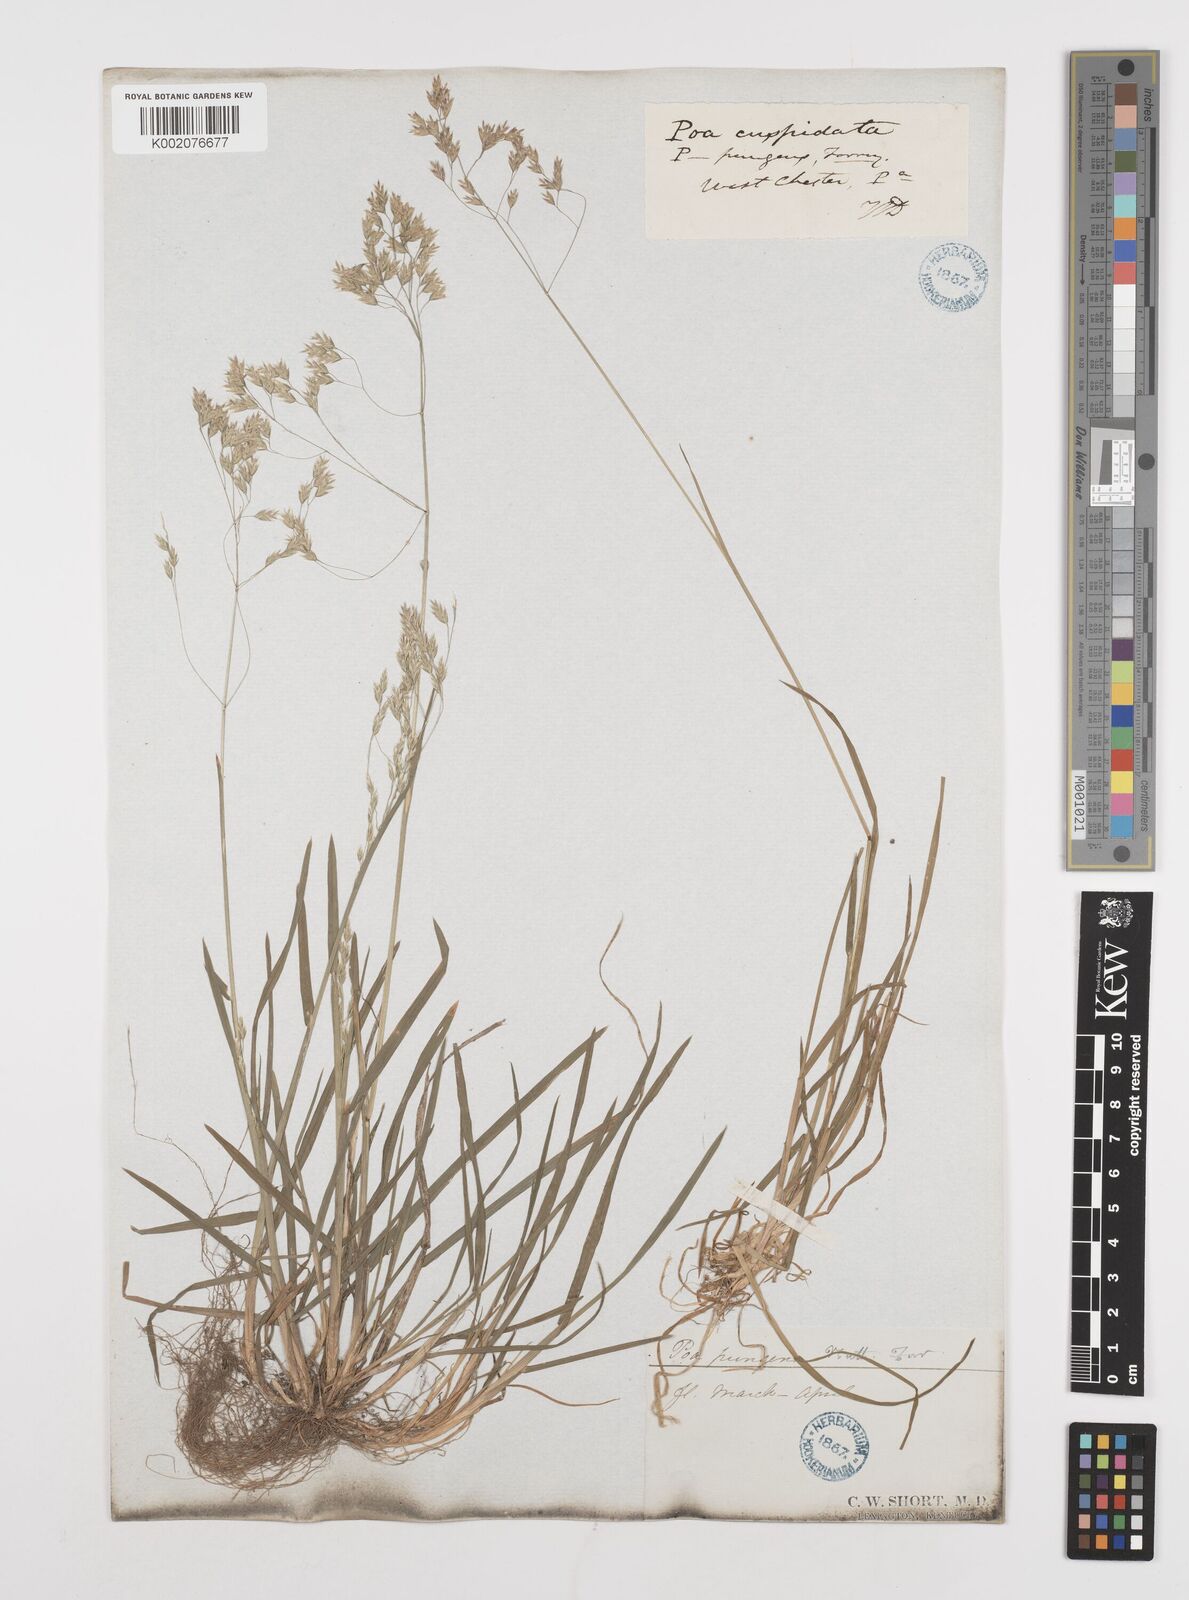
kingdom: Plantae
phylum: Tracheophyta
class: Liliopsida
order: Poales
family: Poaceae
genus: Poa
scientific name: Poa cuspidata
